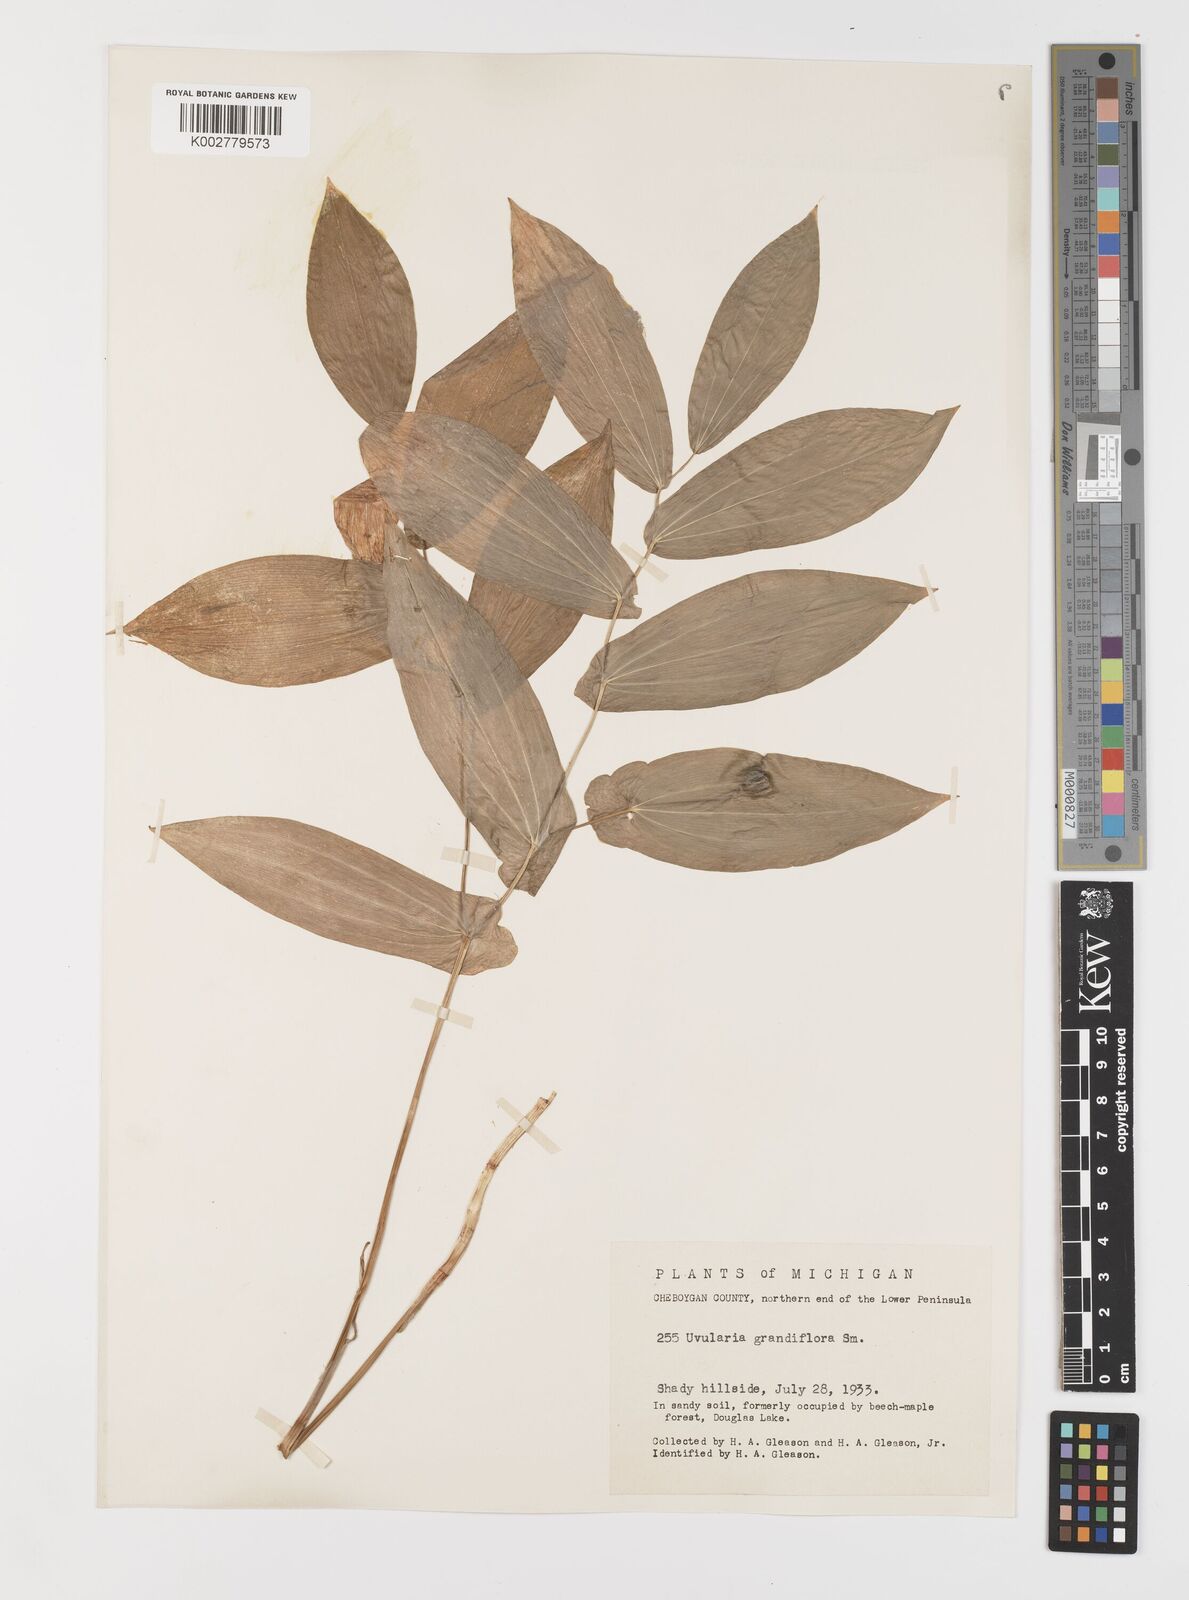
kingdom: Plantae
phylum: Tracheophyta
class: Liliopsida
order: Liliales
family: Colchicaceae
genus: Uvularia
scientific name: Uvularia grandiflora
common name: Bellwort
